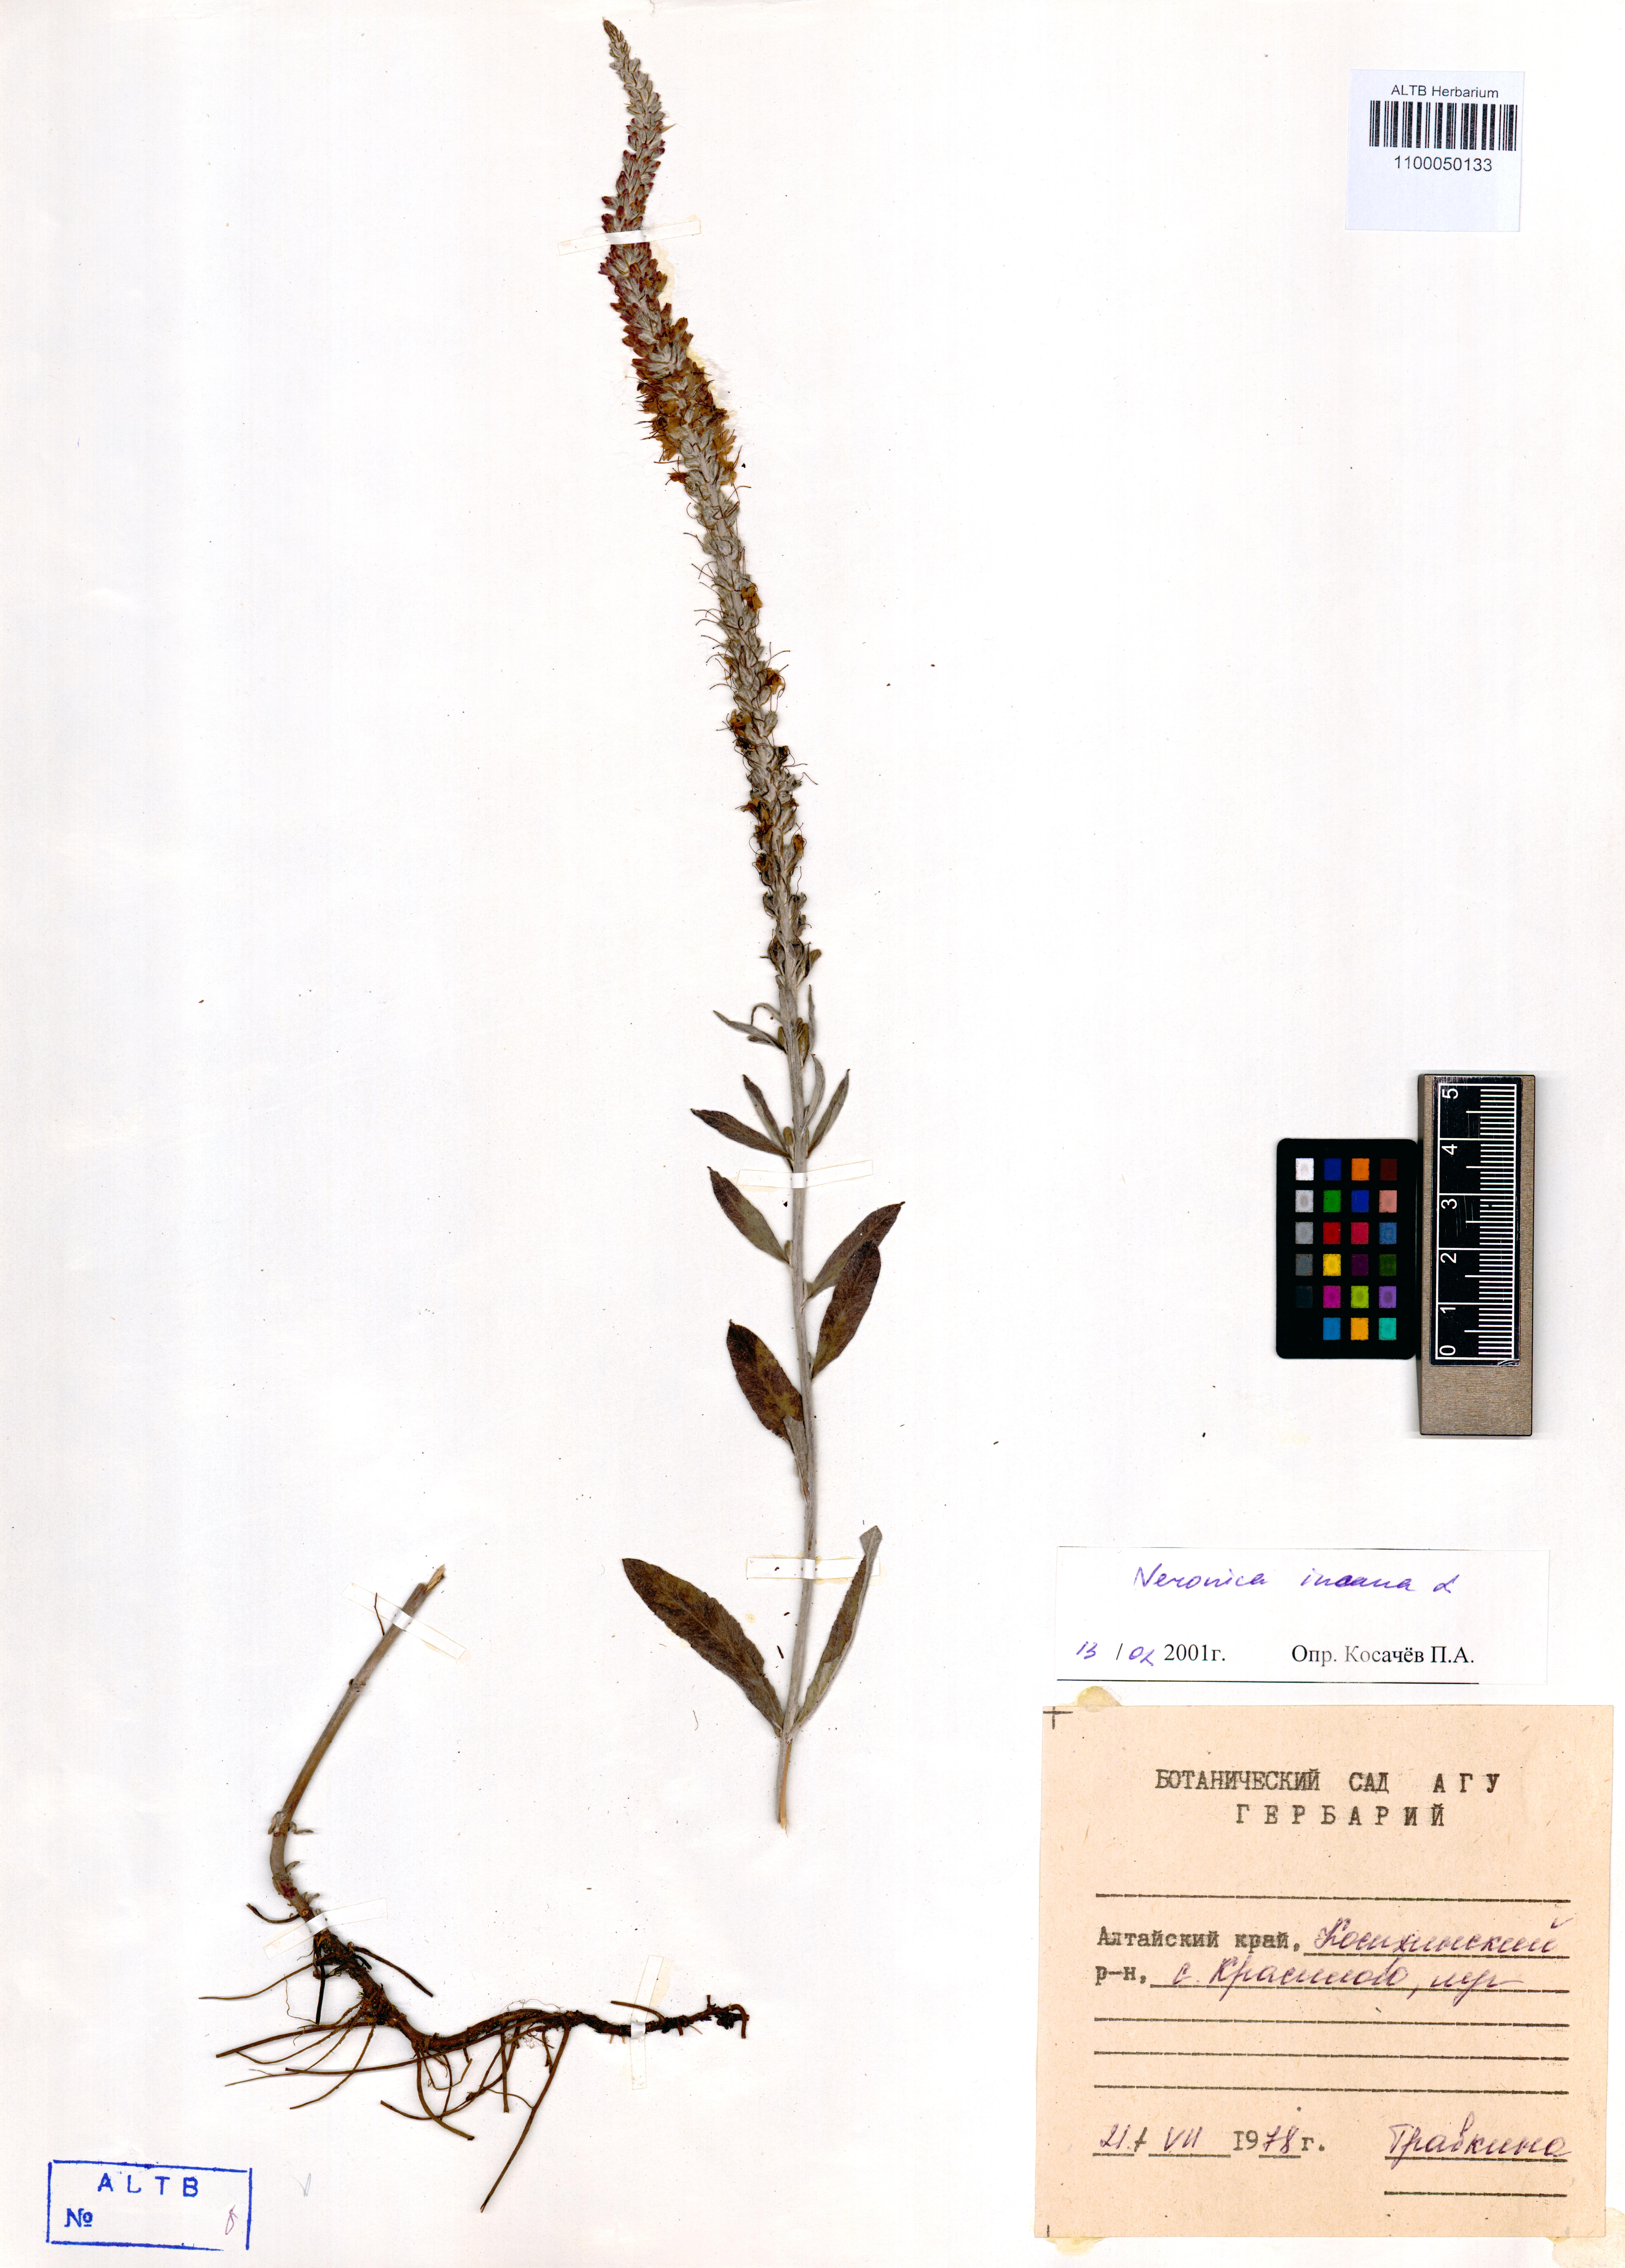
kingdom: Plantae
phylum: Tracheophyta
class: Magnoliopsida
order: Lamiales
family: Plantaginaceae
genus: Veronica
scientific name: Veronica incana
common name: Silver speedwell
